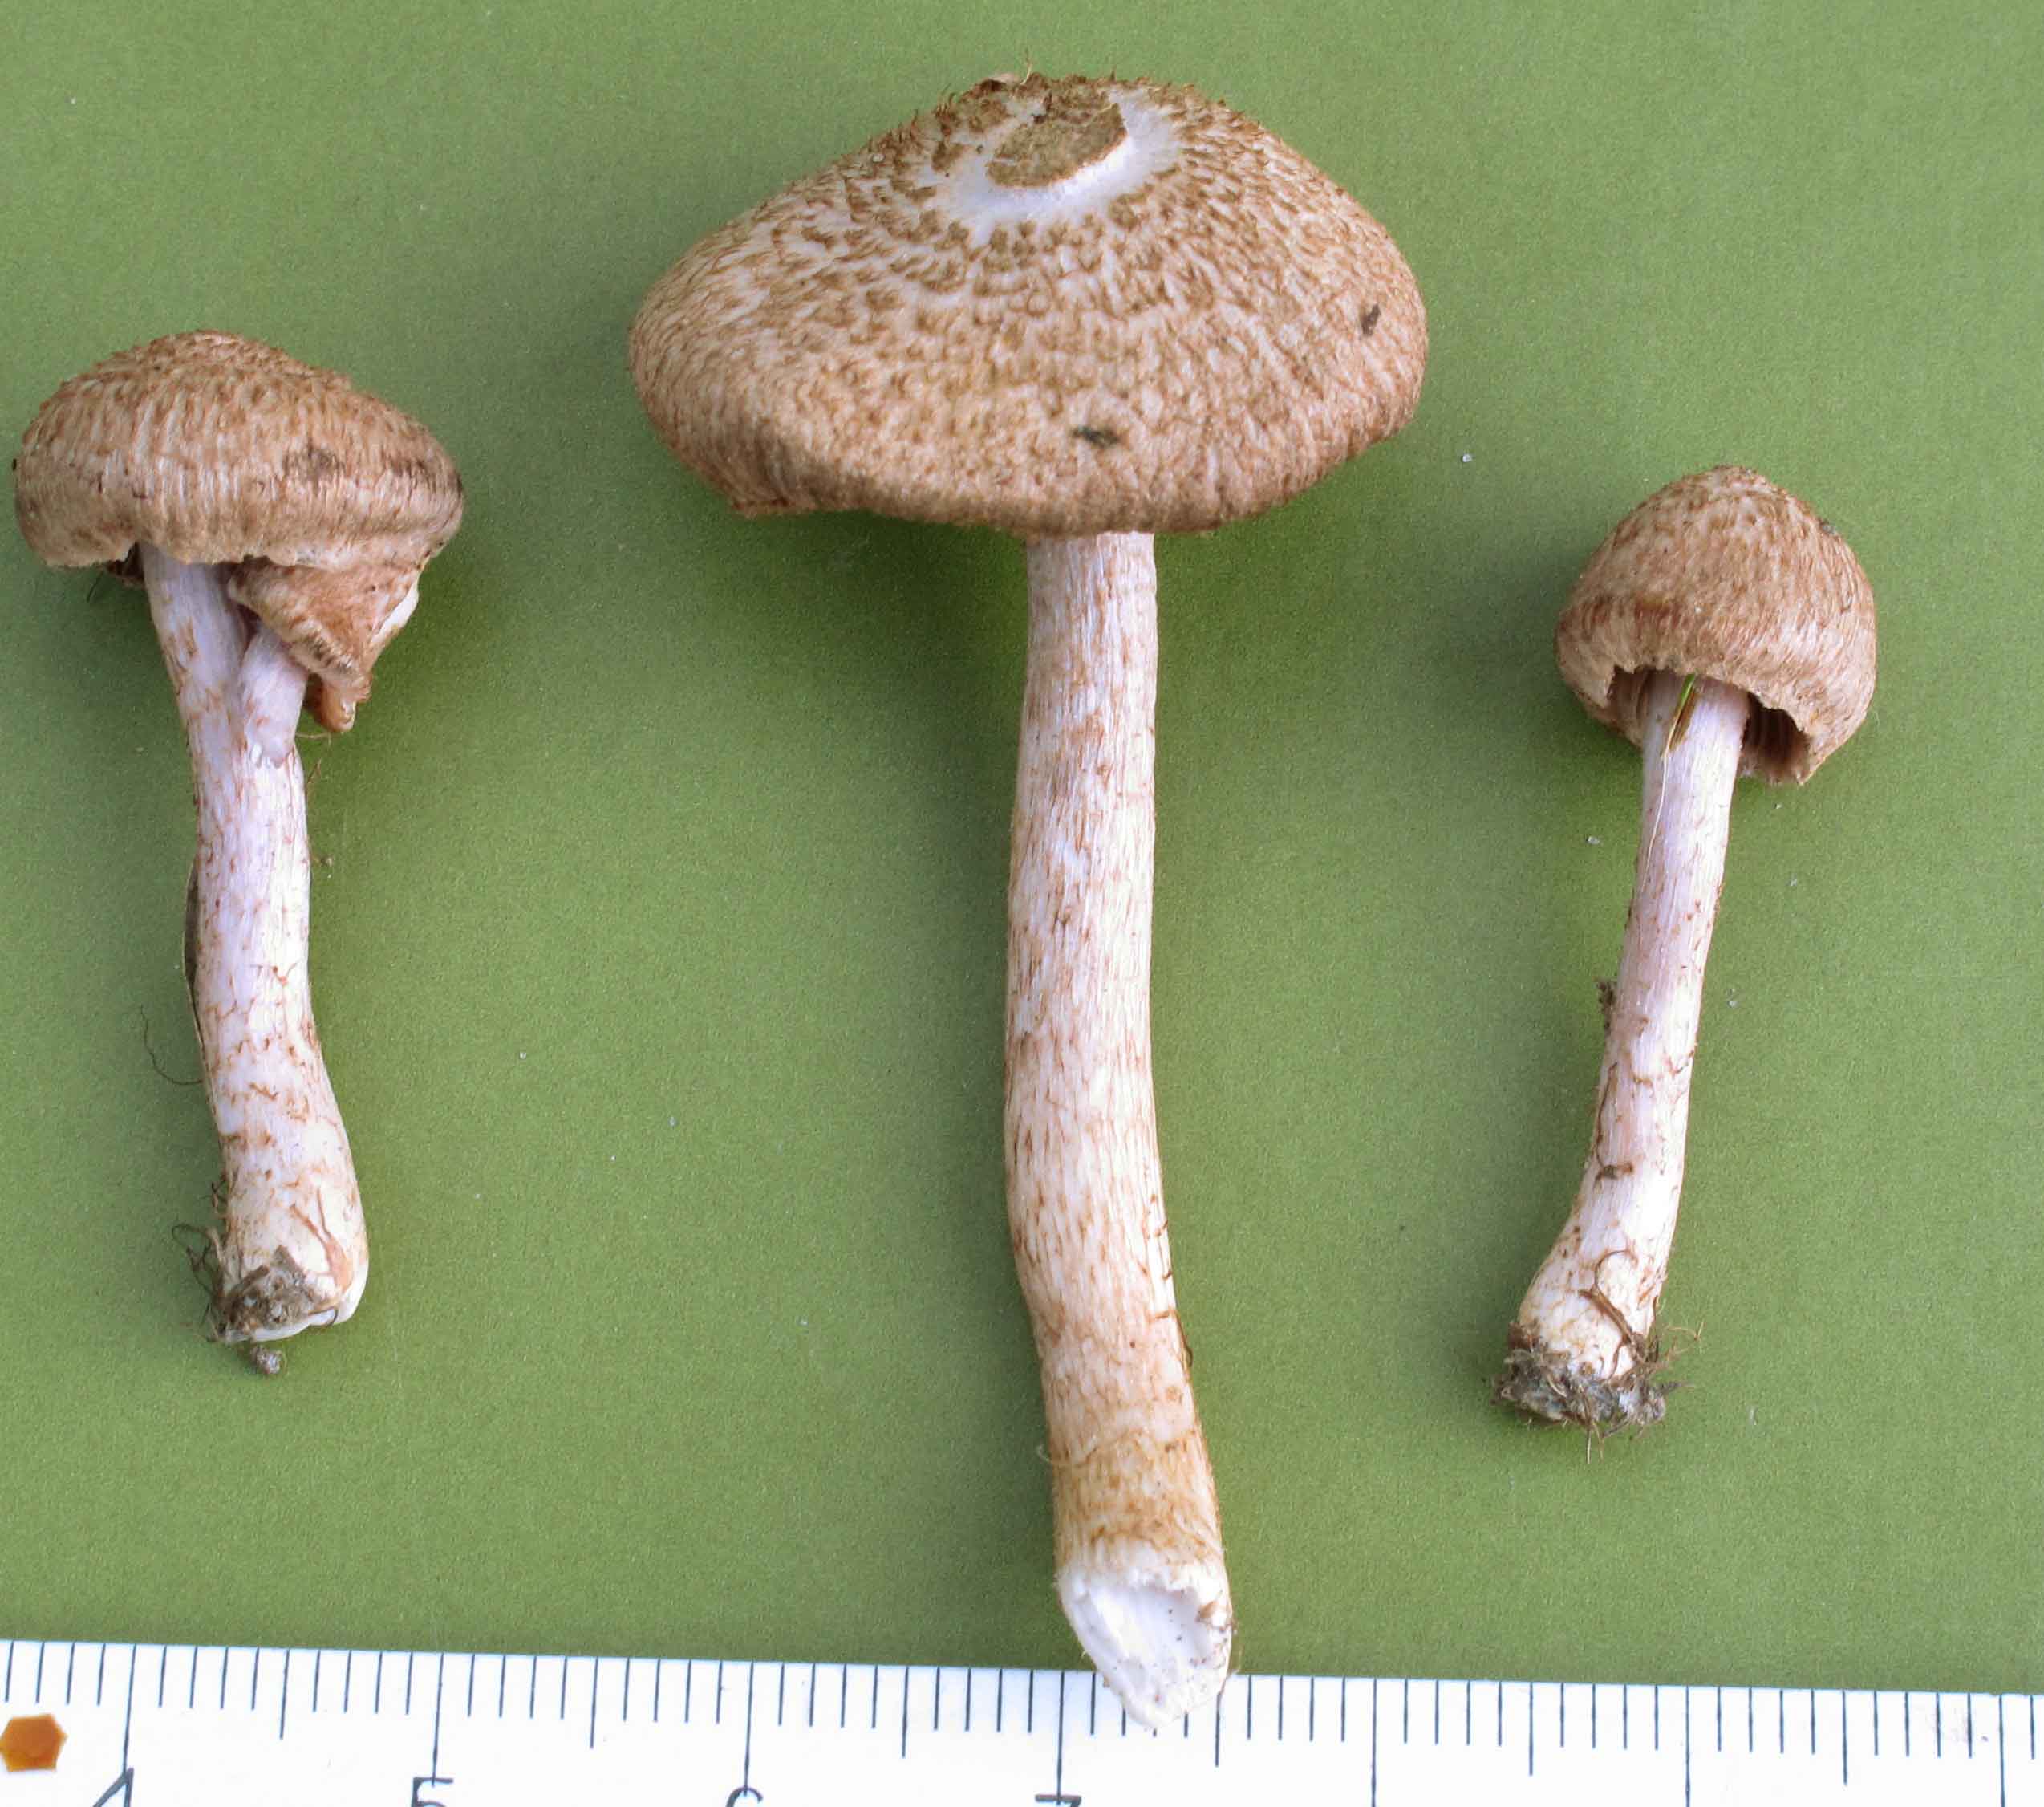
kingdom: Fungi
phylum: Basidiomycota
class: Agaricomycetes
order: Agaricales
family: Inocybaceae
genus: Inocybe
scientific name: Inocybe cincinnata
